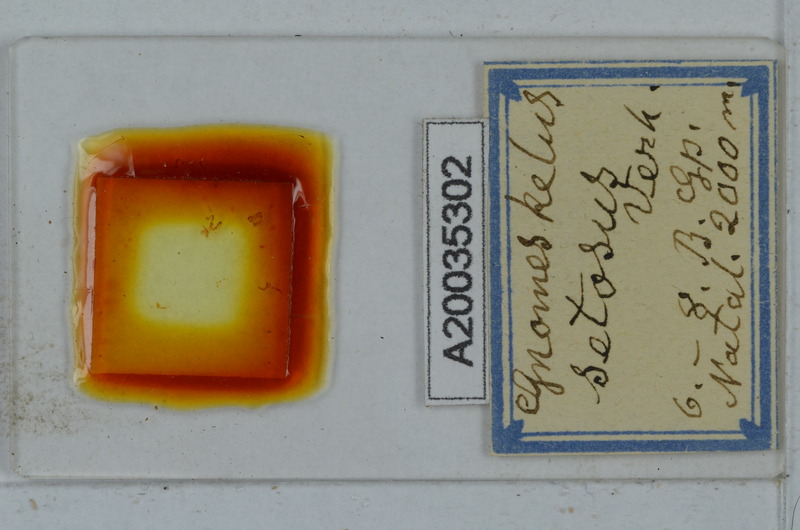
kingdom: Animalia
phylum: Arthropoda
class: Diplopoda
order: Polydesmida
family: Dalodesmidae
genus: Gnomeskelus
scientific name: Gnomeskelus serratus
